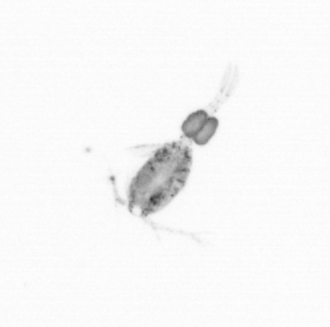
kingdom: Animalia
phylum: Arthropoda
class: Copepoda
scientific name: Copepoda
